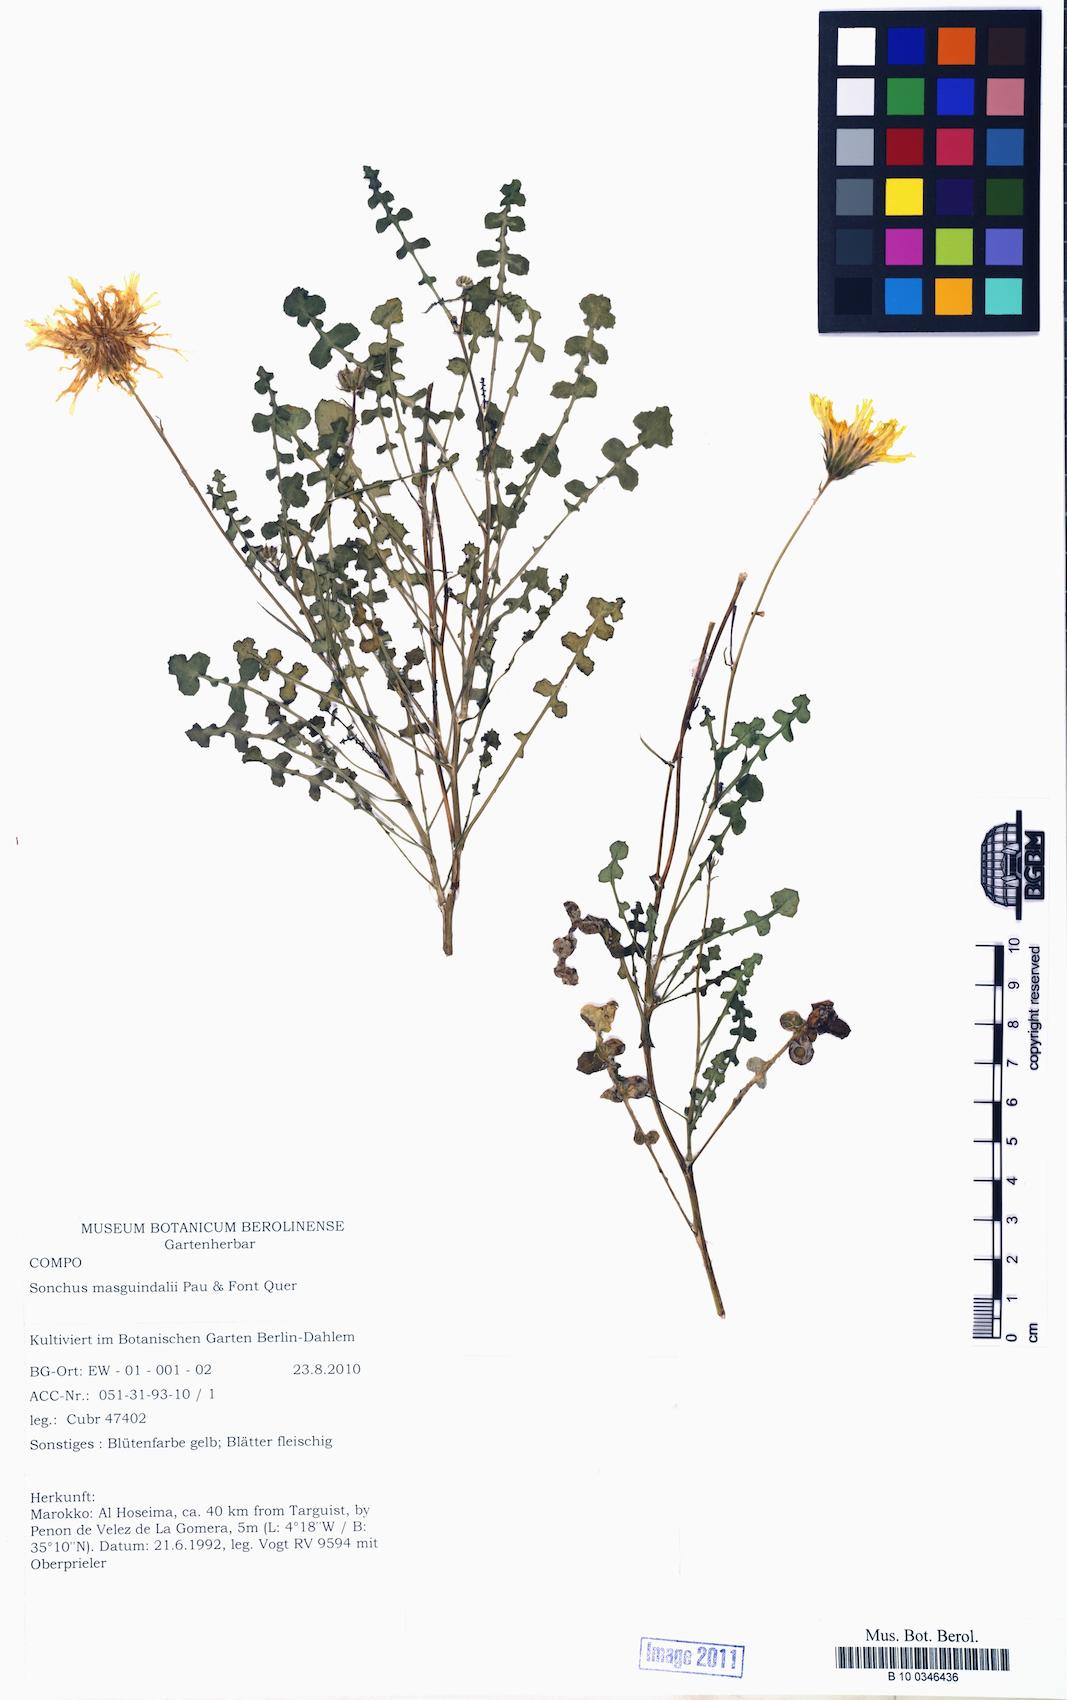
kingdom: Plantae
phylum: Tracheophyta
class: Magnoliopsida
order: Asterales
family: Asteraceae
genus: Sonchus
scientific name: Sonchus masguindalii
